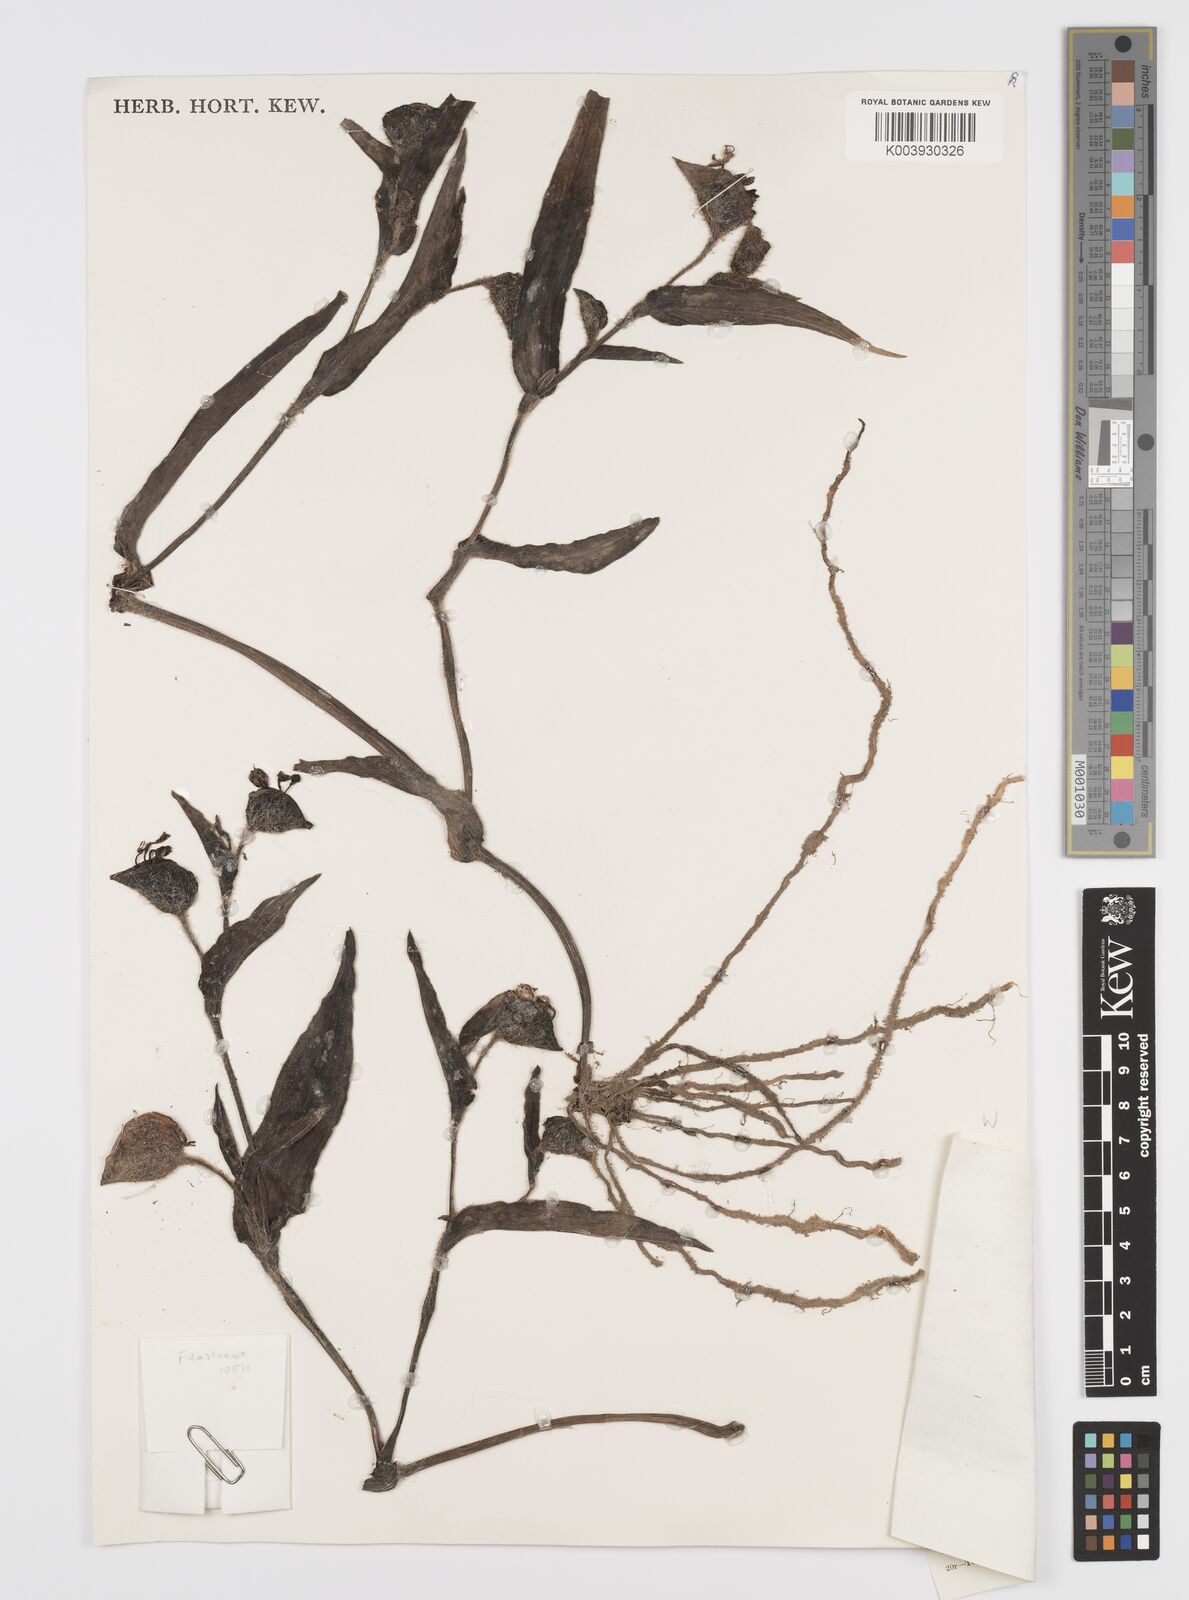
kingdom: Plantae
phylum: Tracheophyta
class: Liliopsida
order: Commelinales
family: Commelinaceae
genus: Commelina
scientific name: Commelina cecilae
